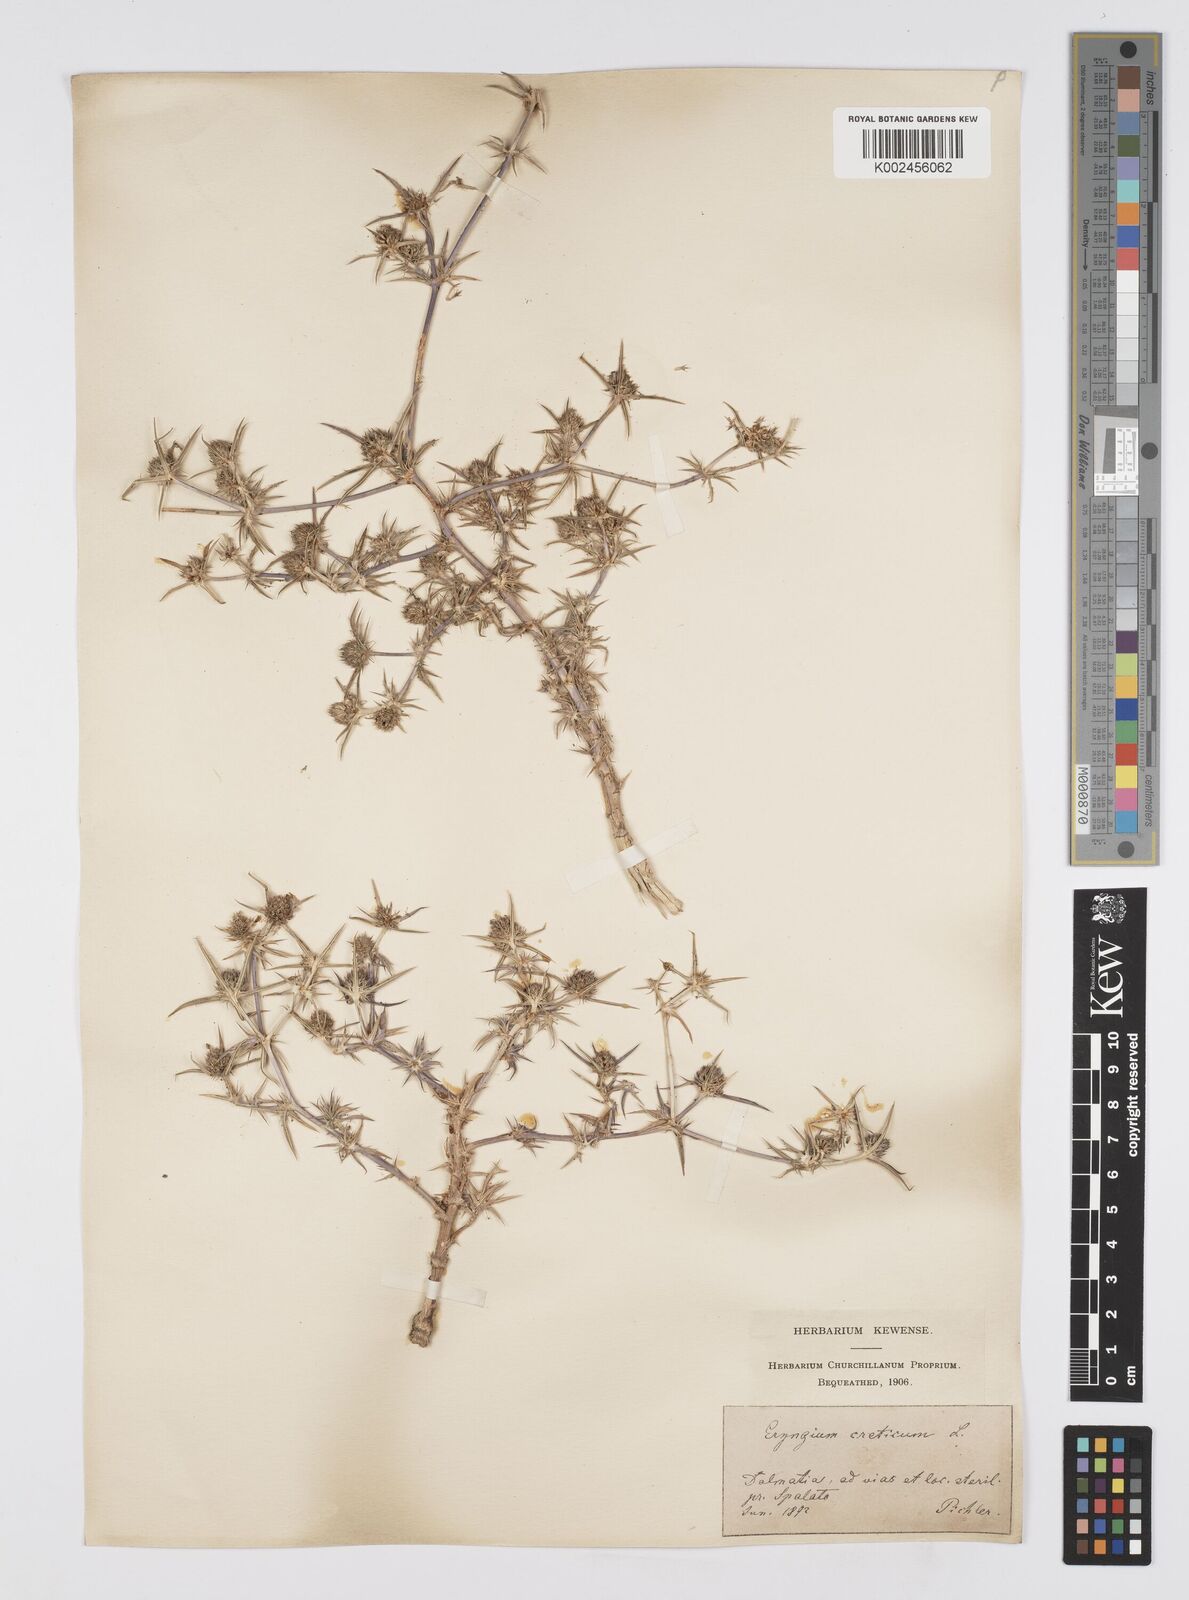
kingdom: Plantae
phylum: Tracheophyta
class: Magnoliopsida
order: Apiales
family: Apiaceae
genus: Eryngium
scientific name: Eryngium creticum
